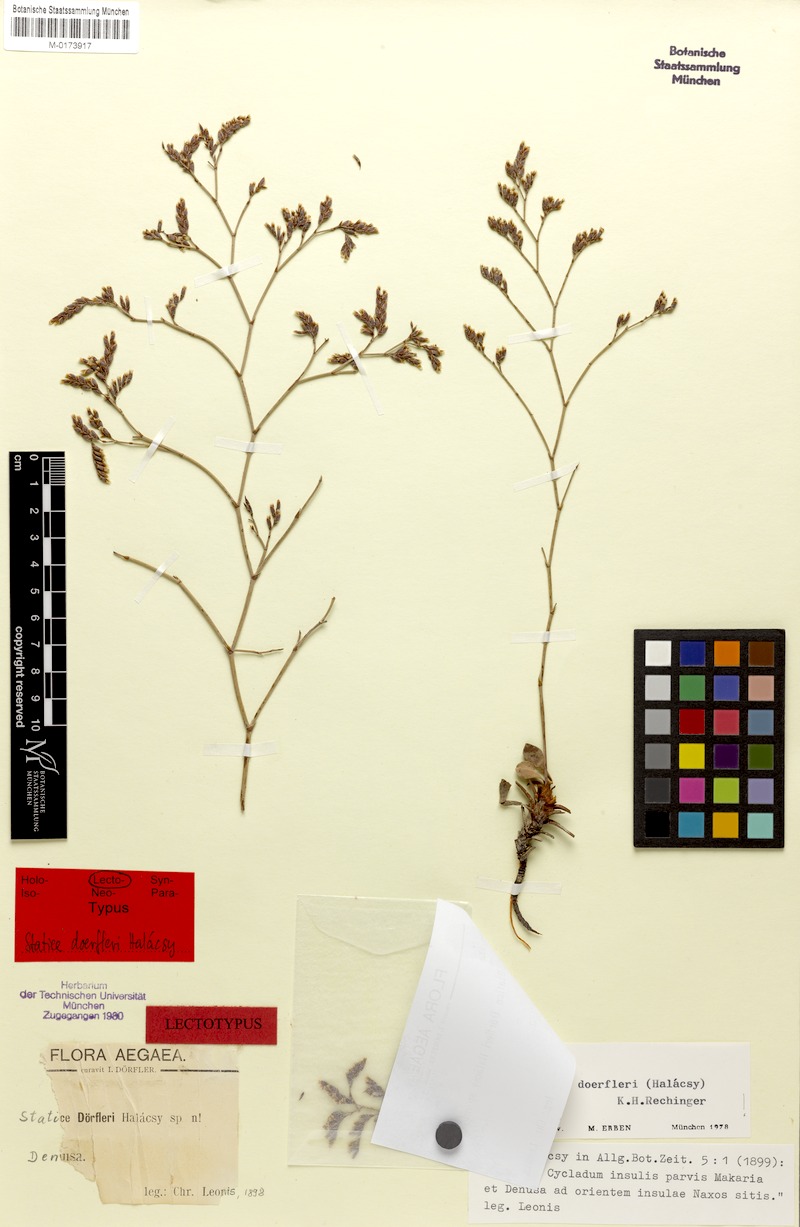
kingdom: Plantae
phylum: Tracheophyta
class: Magnoliopsida
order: Caryophyllales
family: Plumbaginaceae
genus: Limonium
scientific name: Limonium doerfleri
